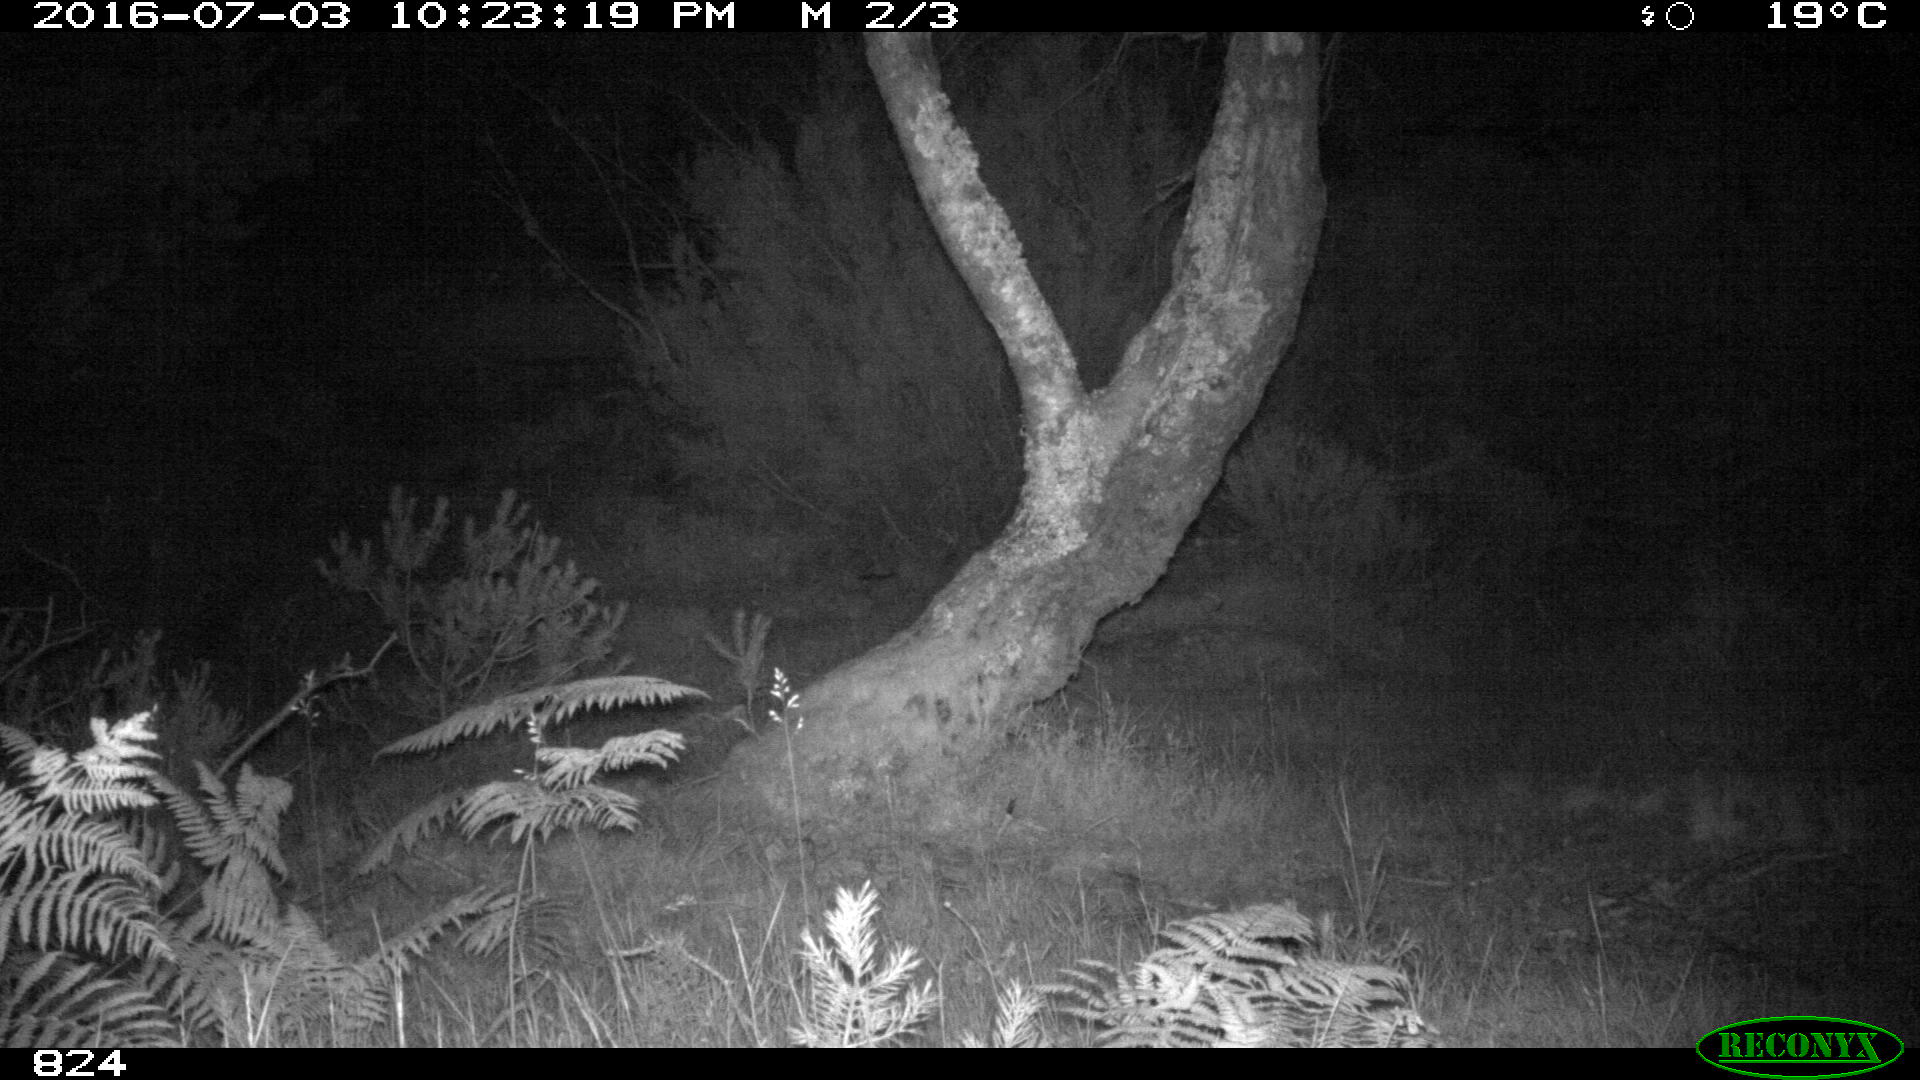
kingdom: Animalia
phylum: Chordata
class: Mammalia
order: Artiodactyla
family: Suidae
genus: Sus
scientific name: Sus scrofa
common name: Wild boar
